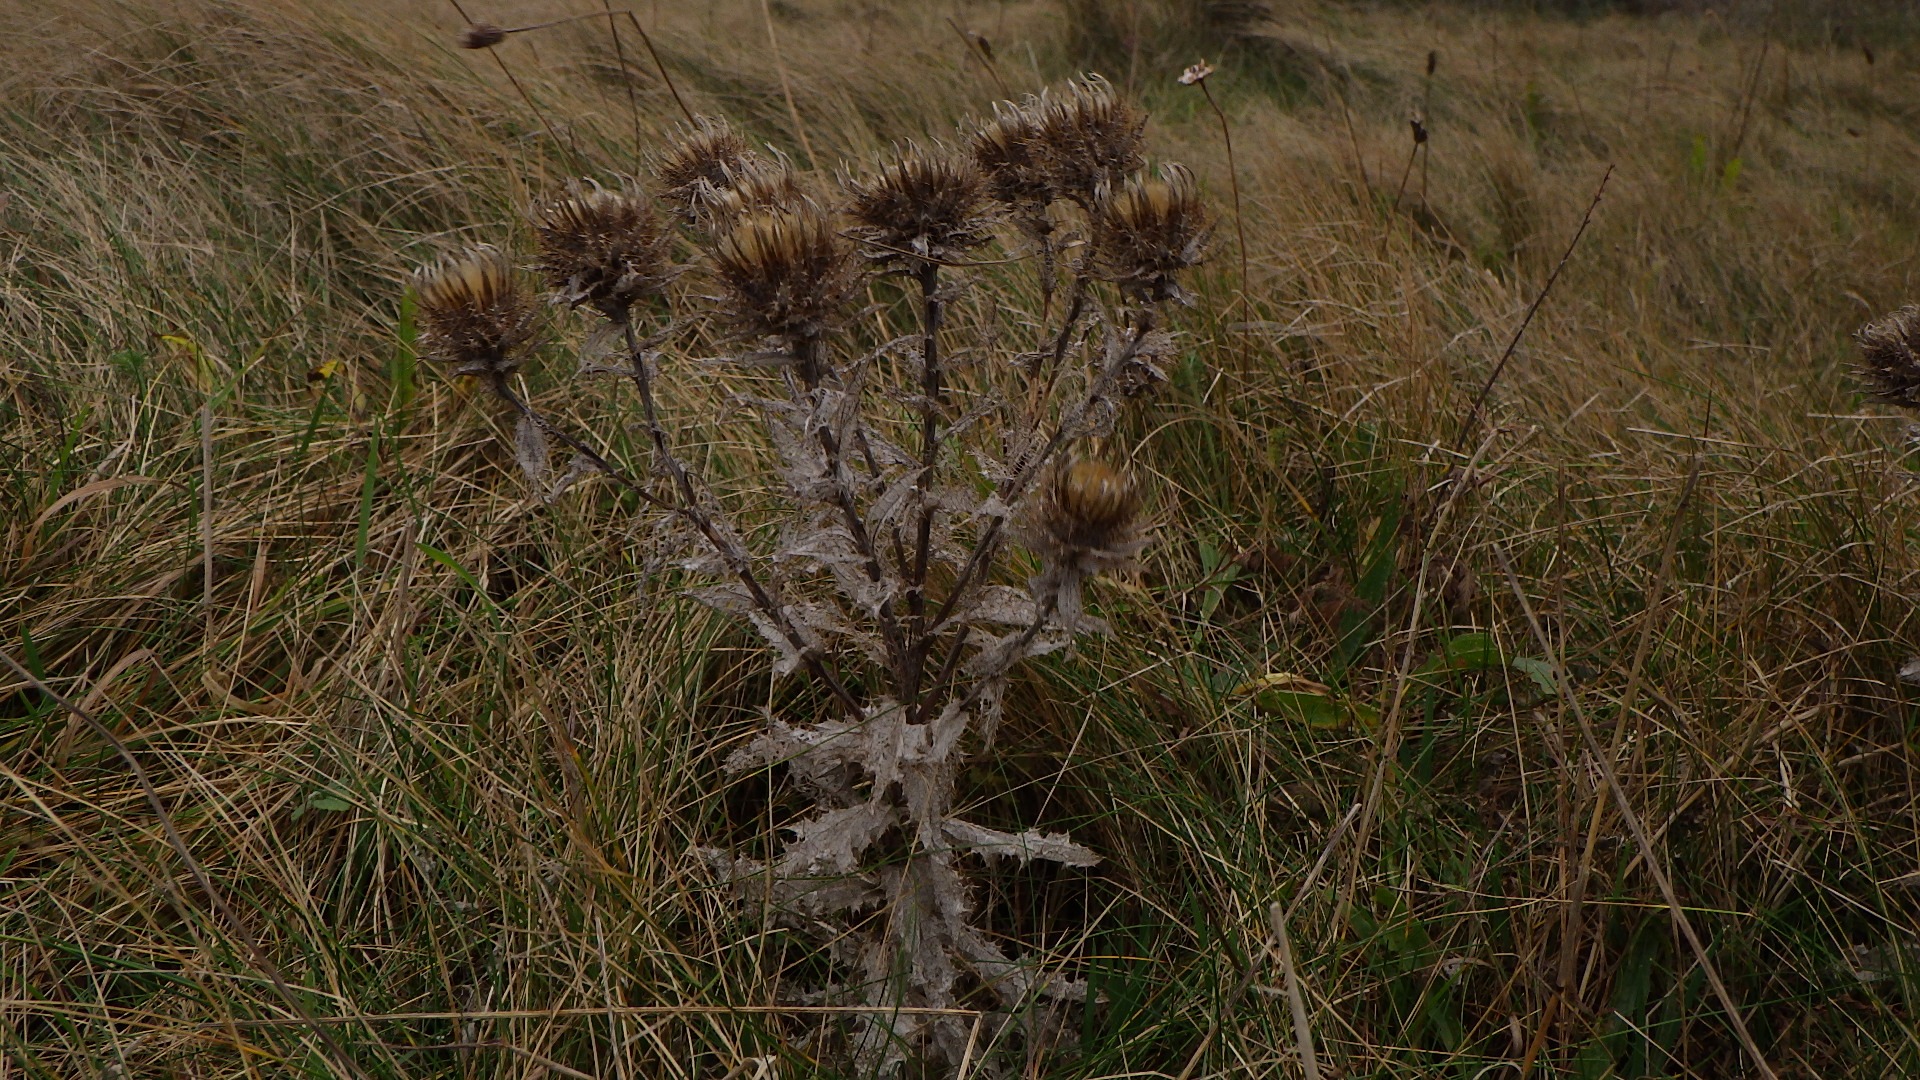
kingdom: Plantae
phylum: Tracheophyta
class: Magnoliopsida
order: Asterales
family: Asteraceae
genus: Carlina
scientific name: Carlina vulgaris
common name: Bakketidsel
